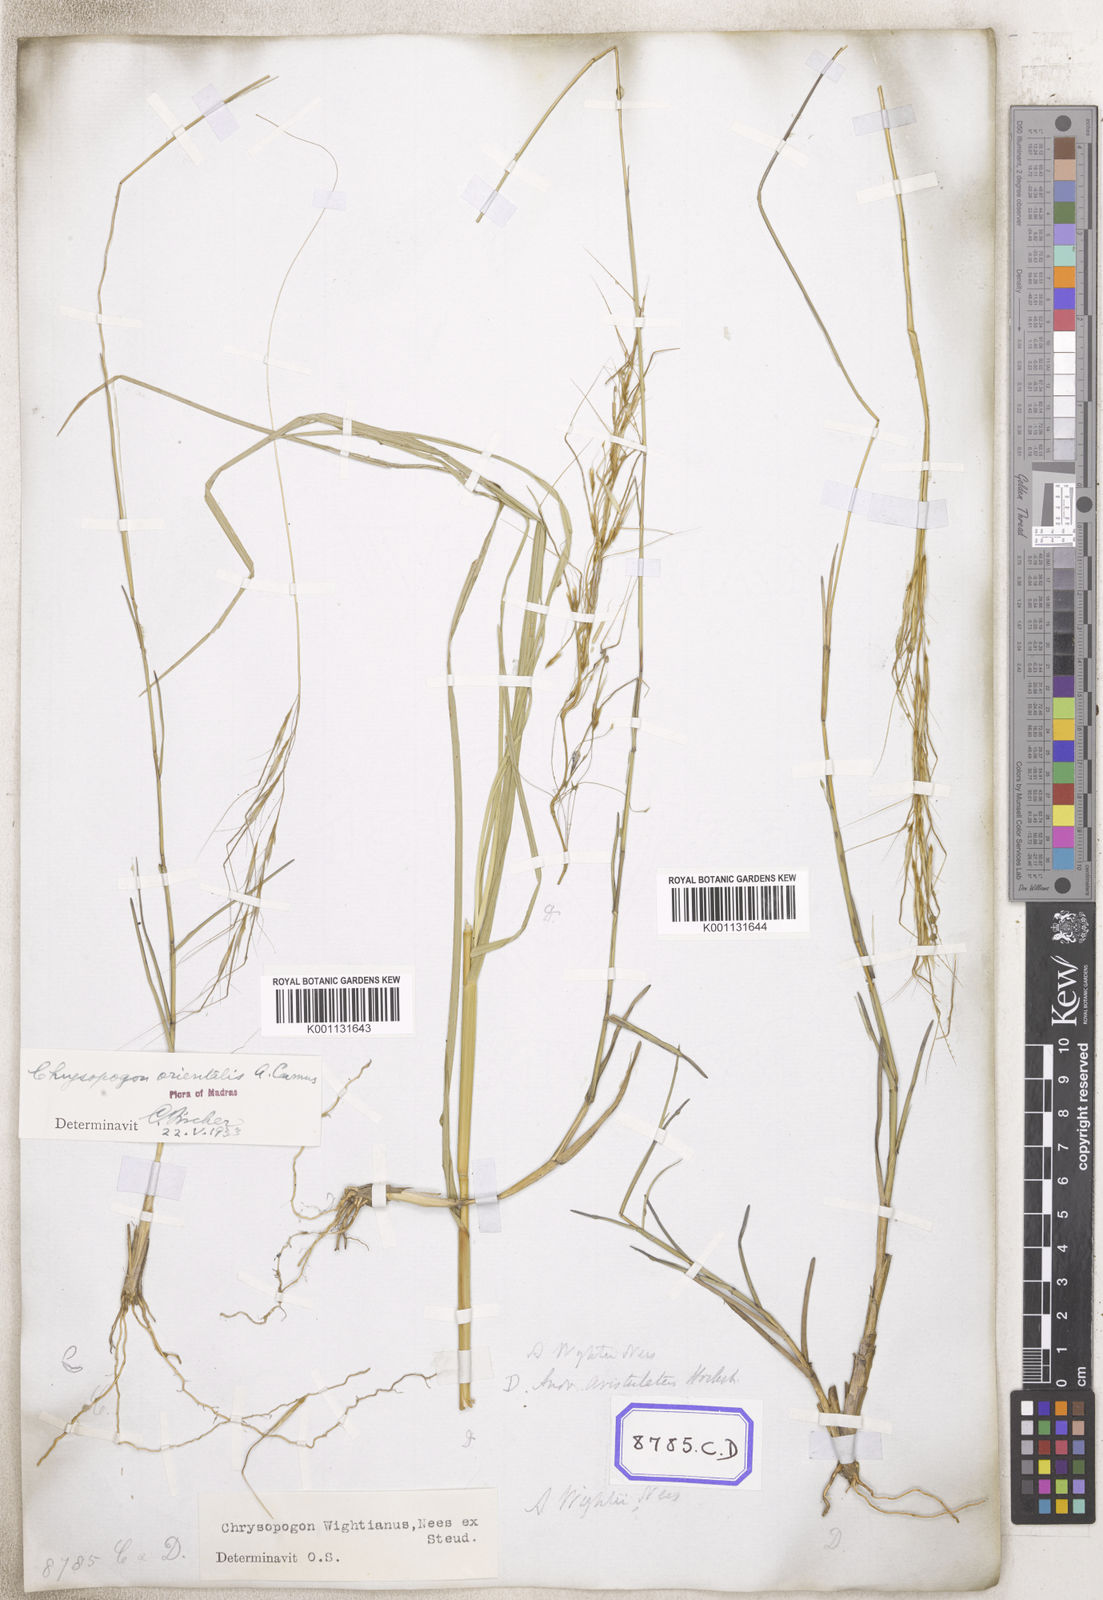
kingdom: Plantae
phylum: Tracheophyta
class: Liliopsida
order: Poales
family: Poaceae
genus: Chrysopogon
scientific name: Chrysopogon
